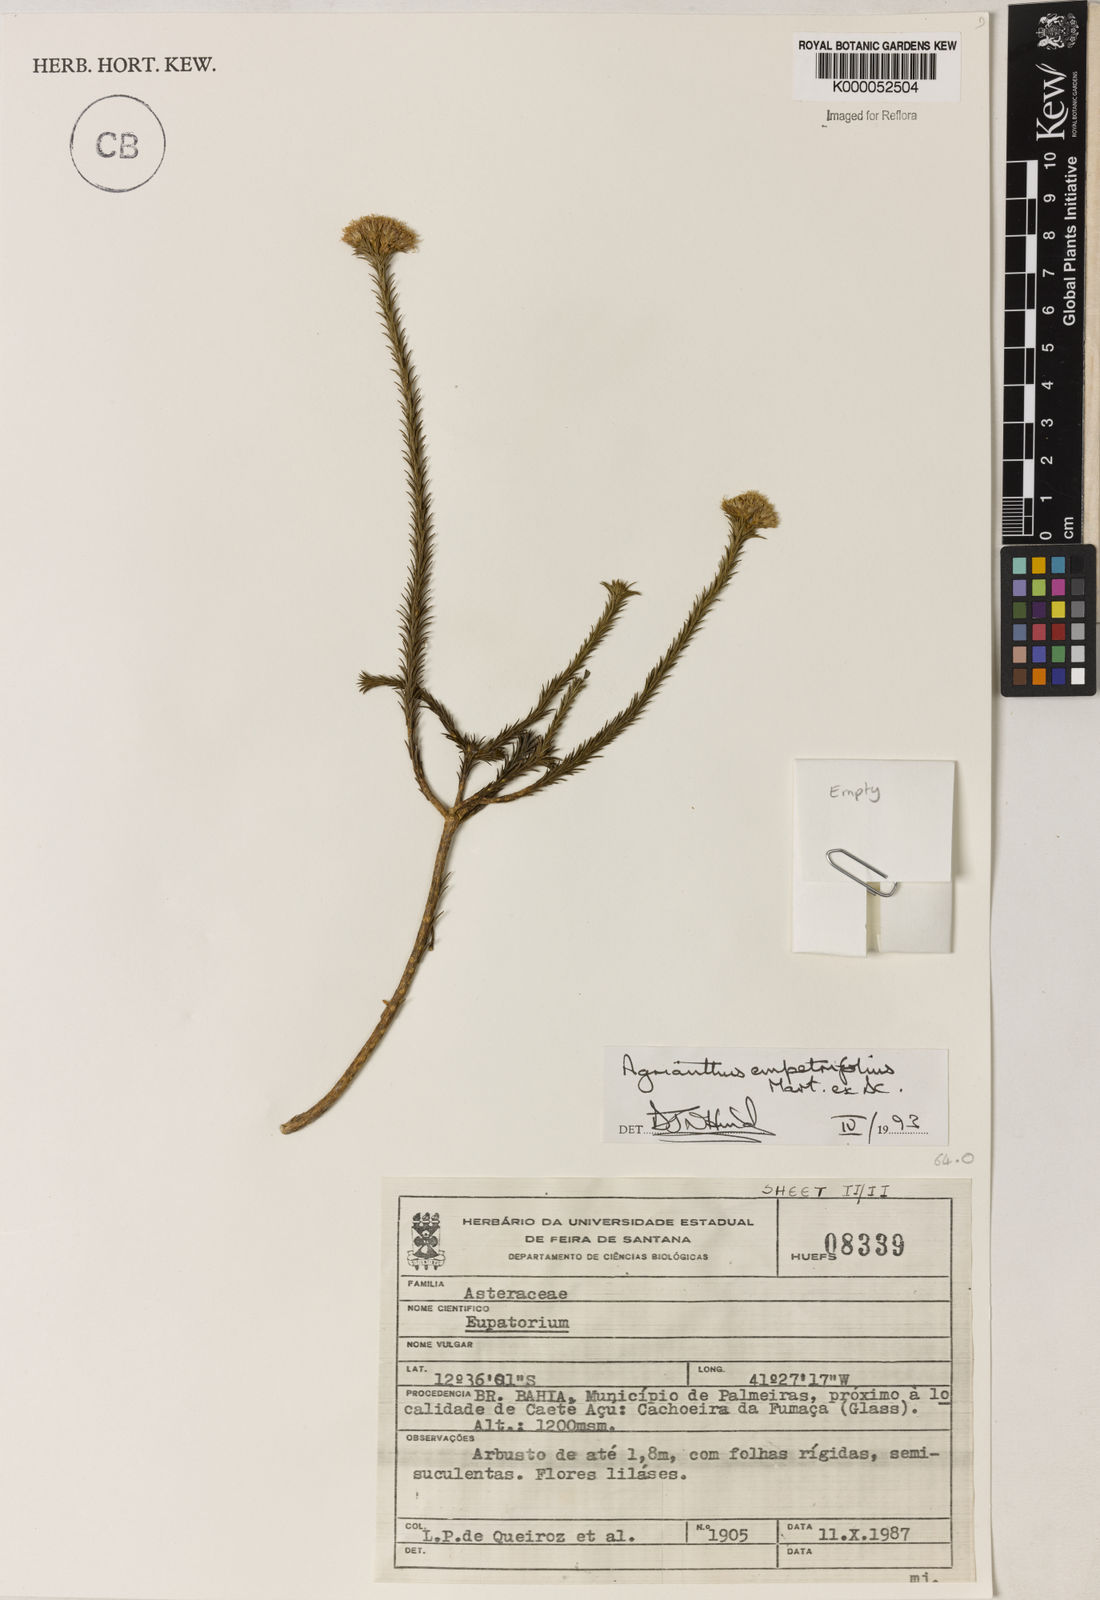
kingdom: Plantae
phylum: Tracheophyta
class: Magnoliopsida
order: Asterales
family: Asteraceae
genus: Agrianthus
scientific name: Agrianthus
